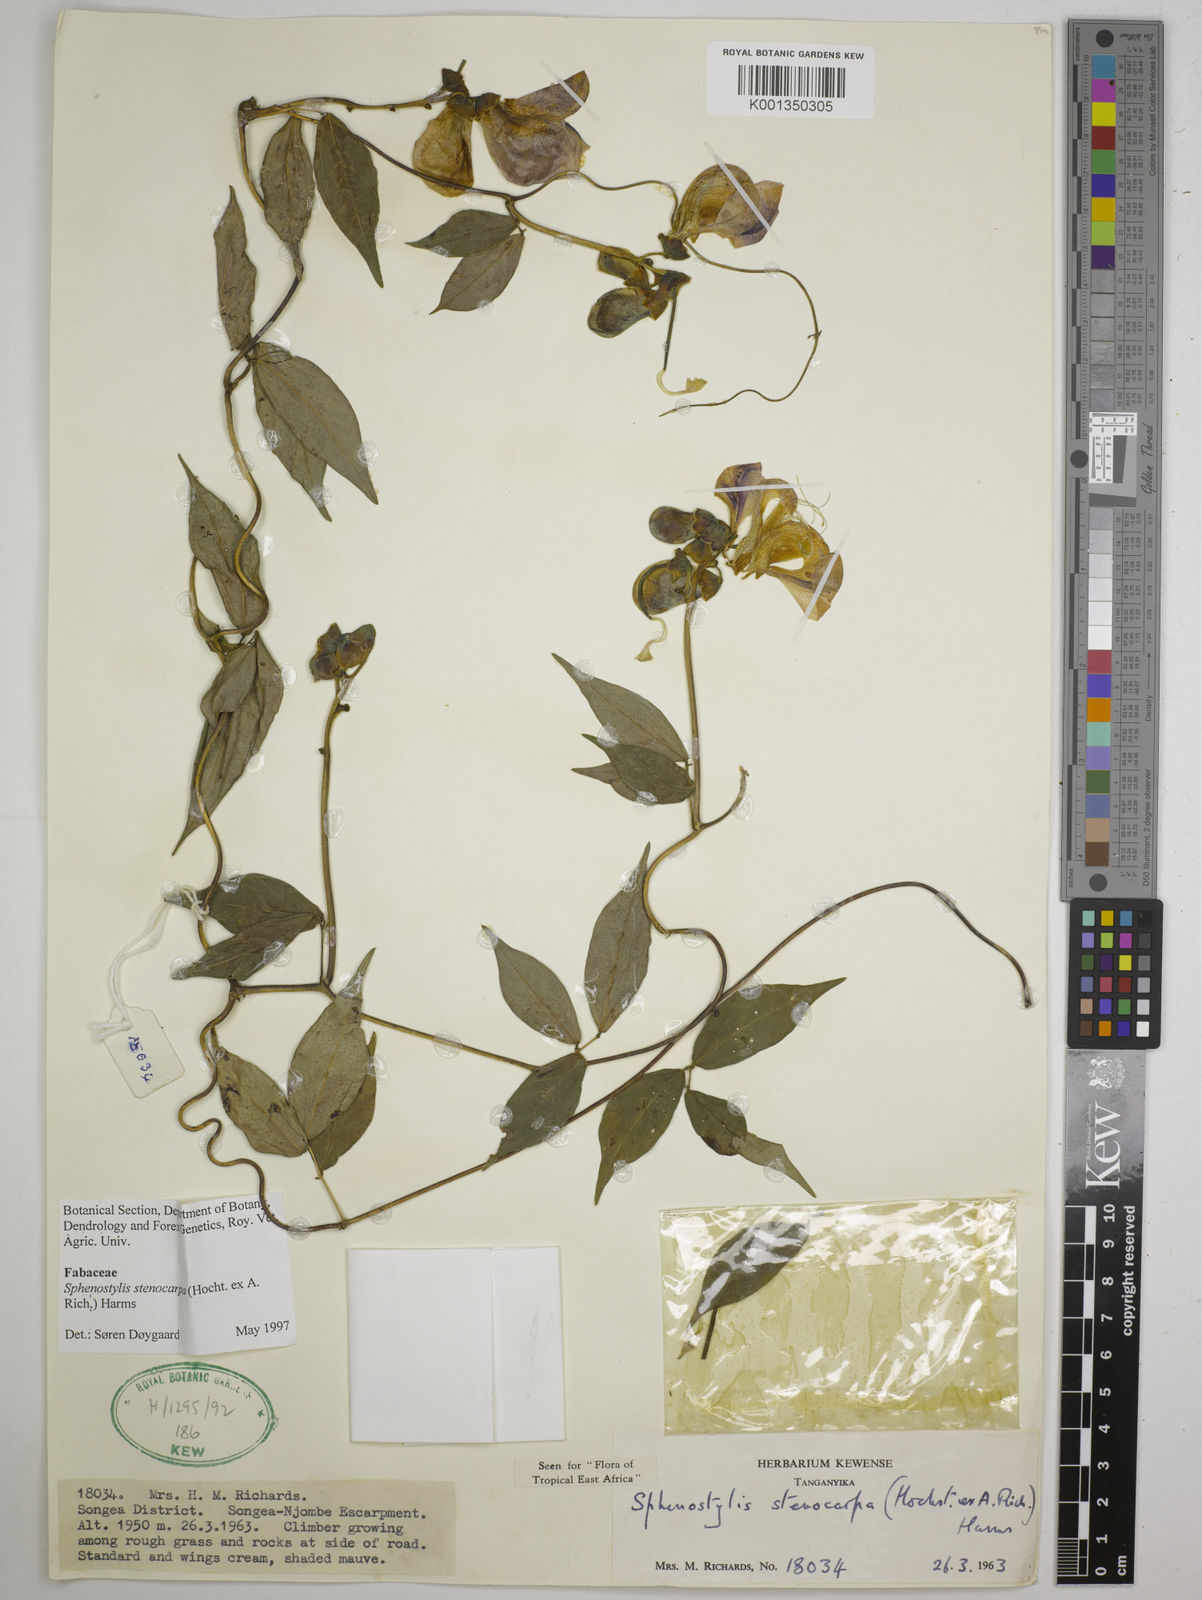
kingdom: Plantae
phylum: Tracheophyta
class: Magnoliopsida
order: Fabales
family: Fabaceae
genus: Sphenostylis
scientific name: Sphenostylis stenocarpa
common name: Yam-pea
